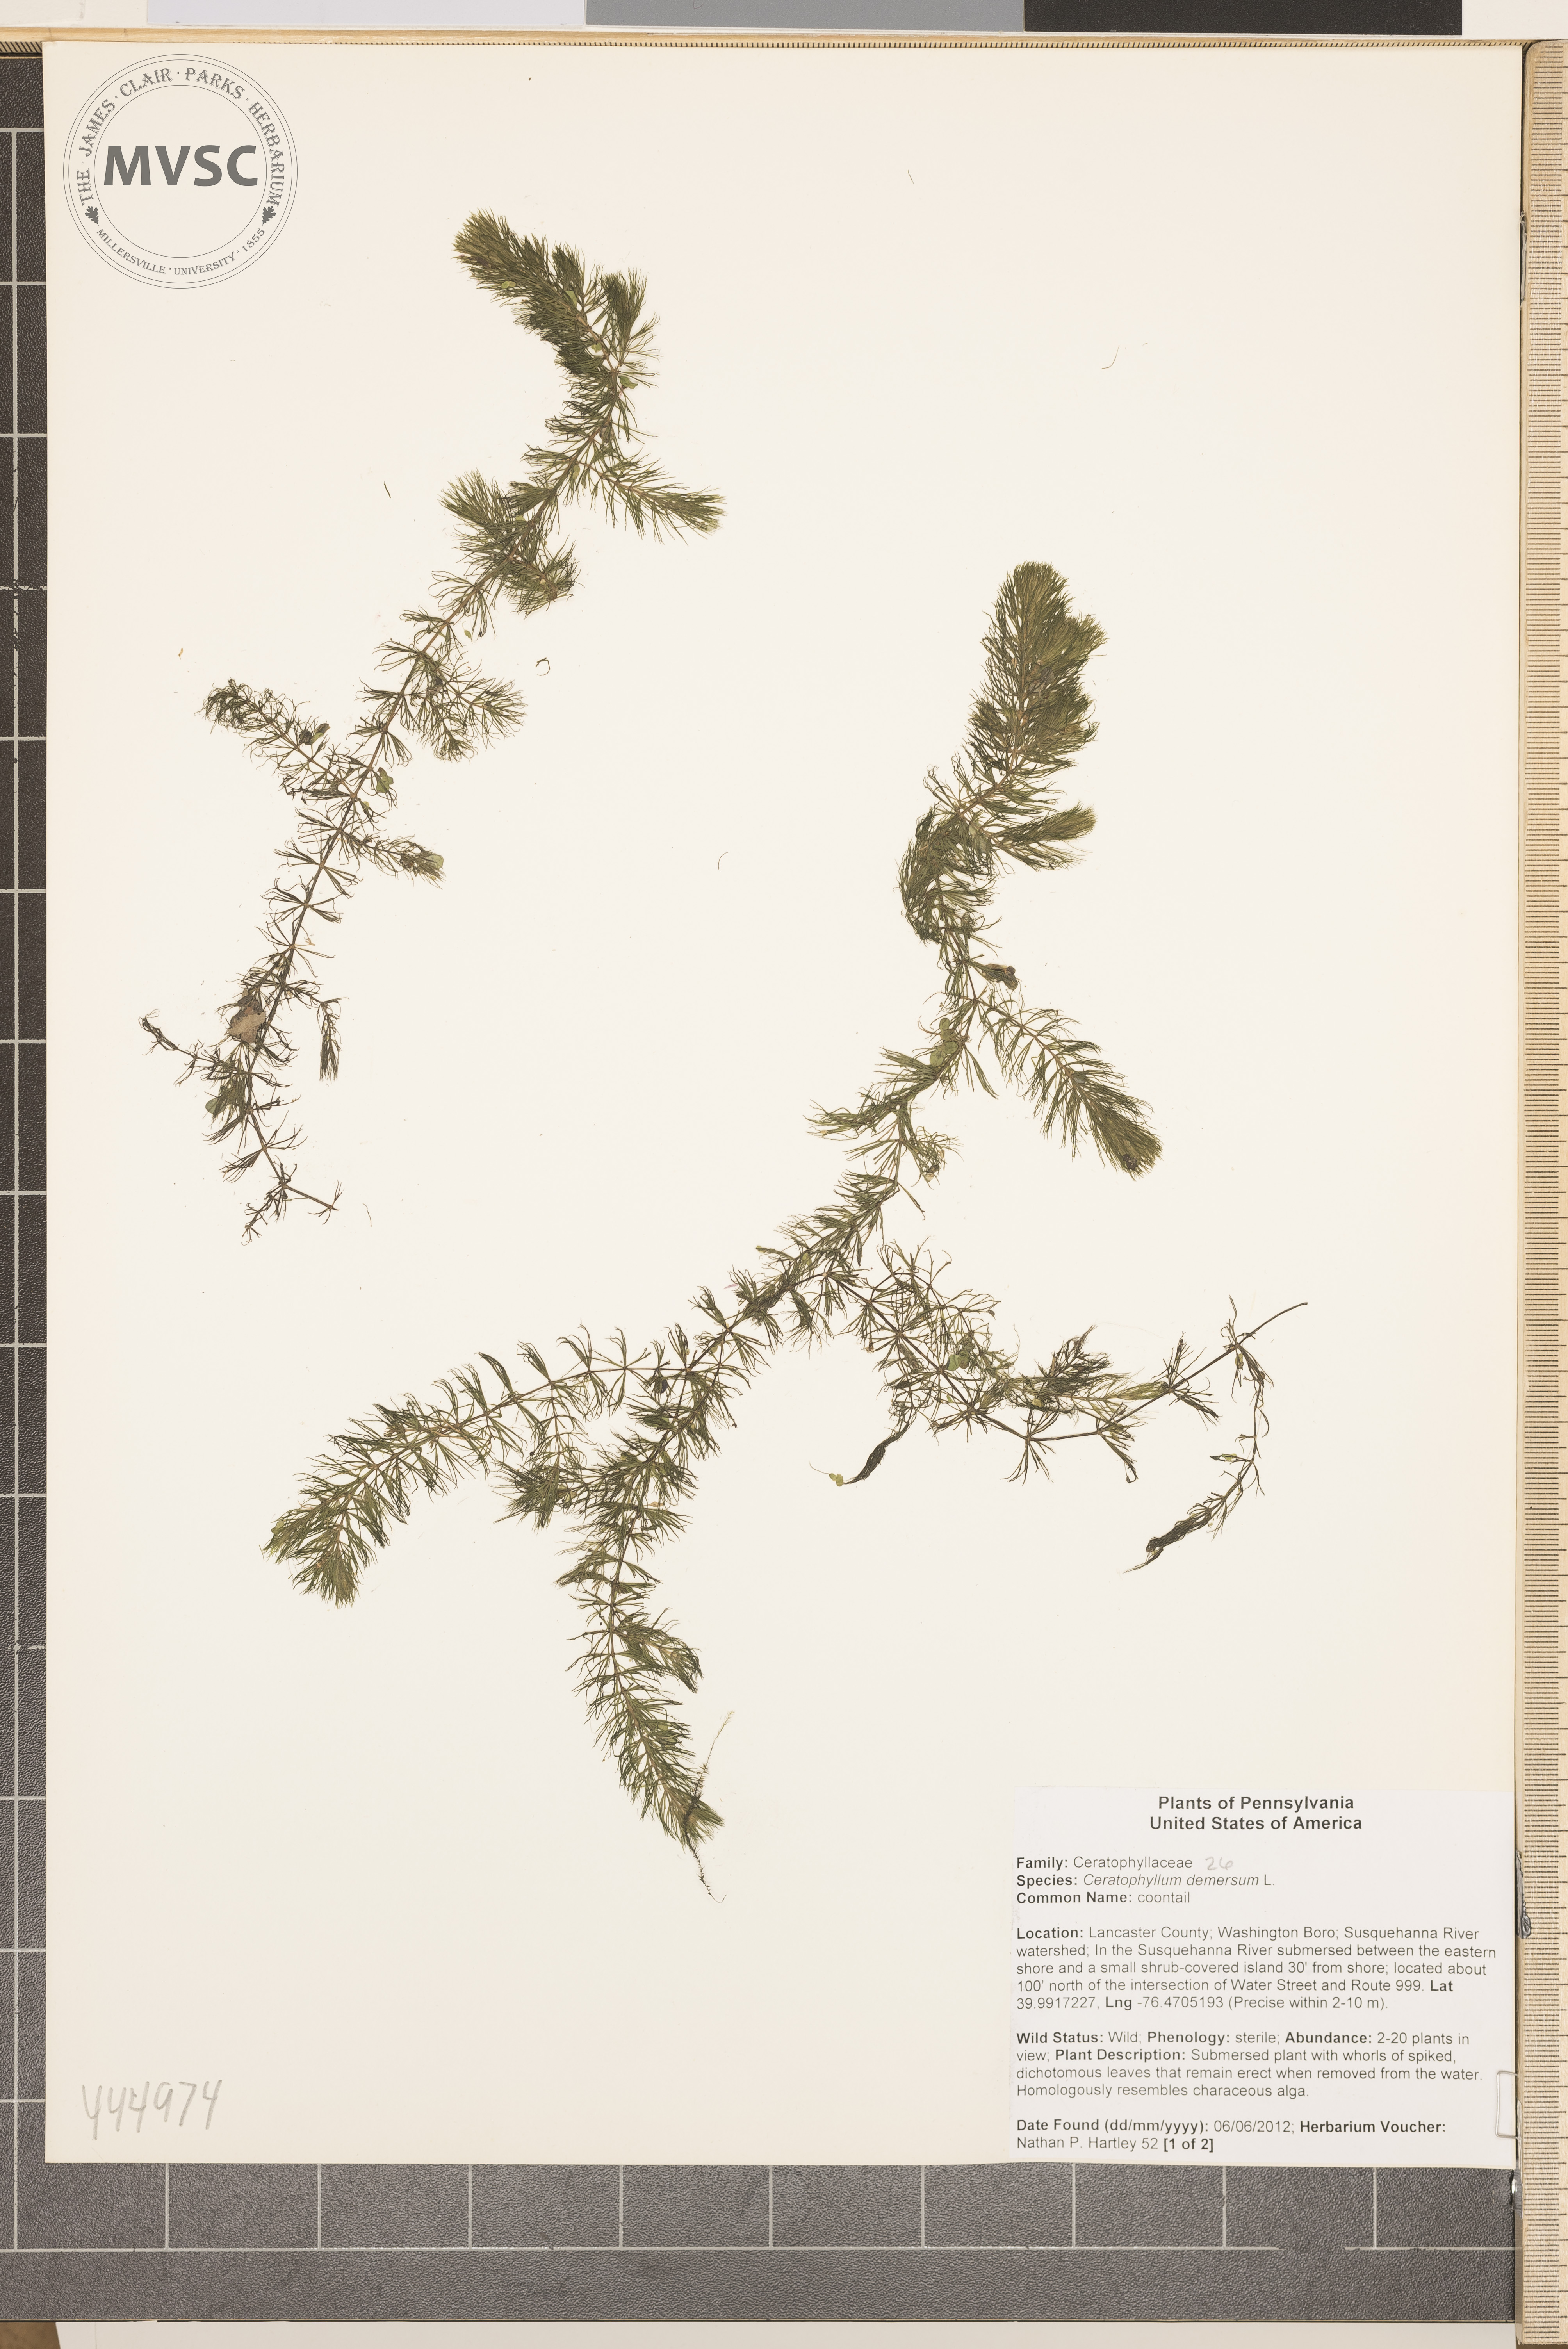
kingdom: Plantae
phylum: Tracheophyta
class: Magnoliopsida
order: Ceratophyllales
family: Ceratophyllaceae
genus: Ceratophyllum
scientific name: Ceratophyllum demersum
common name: Coontail
